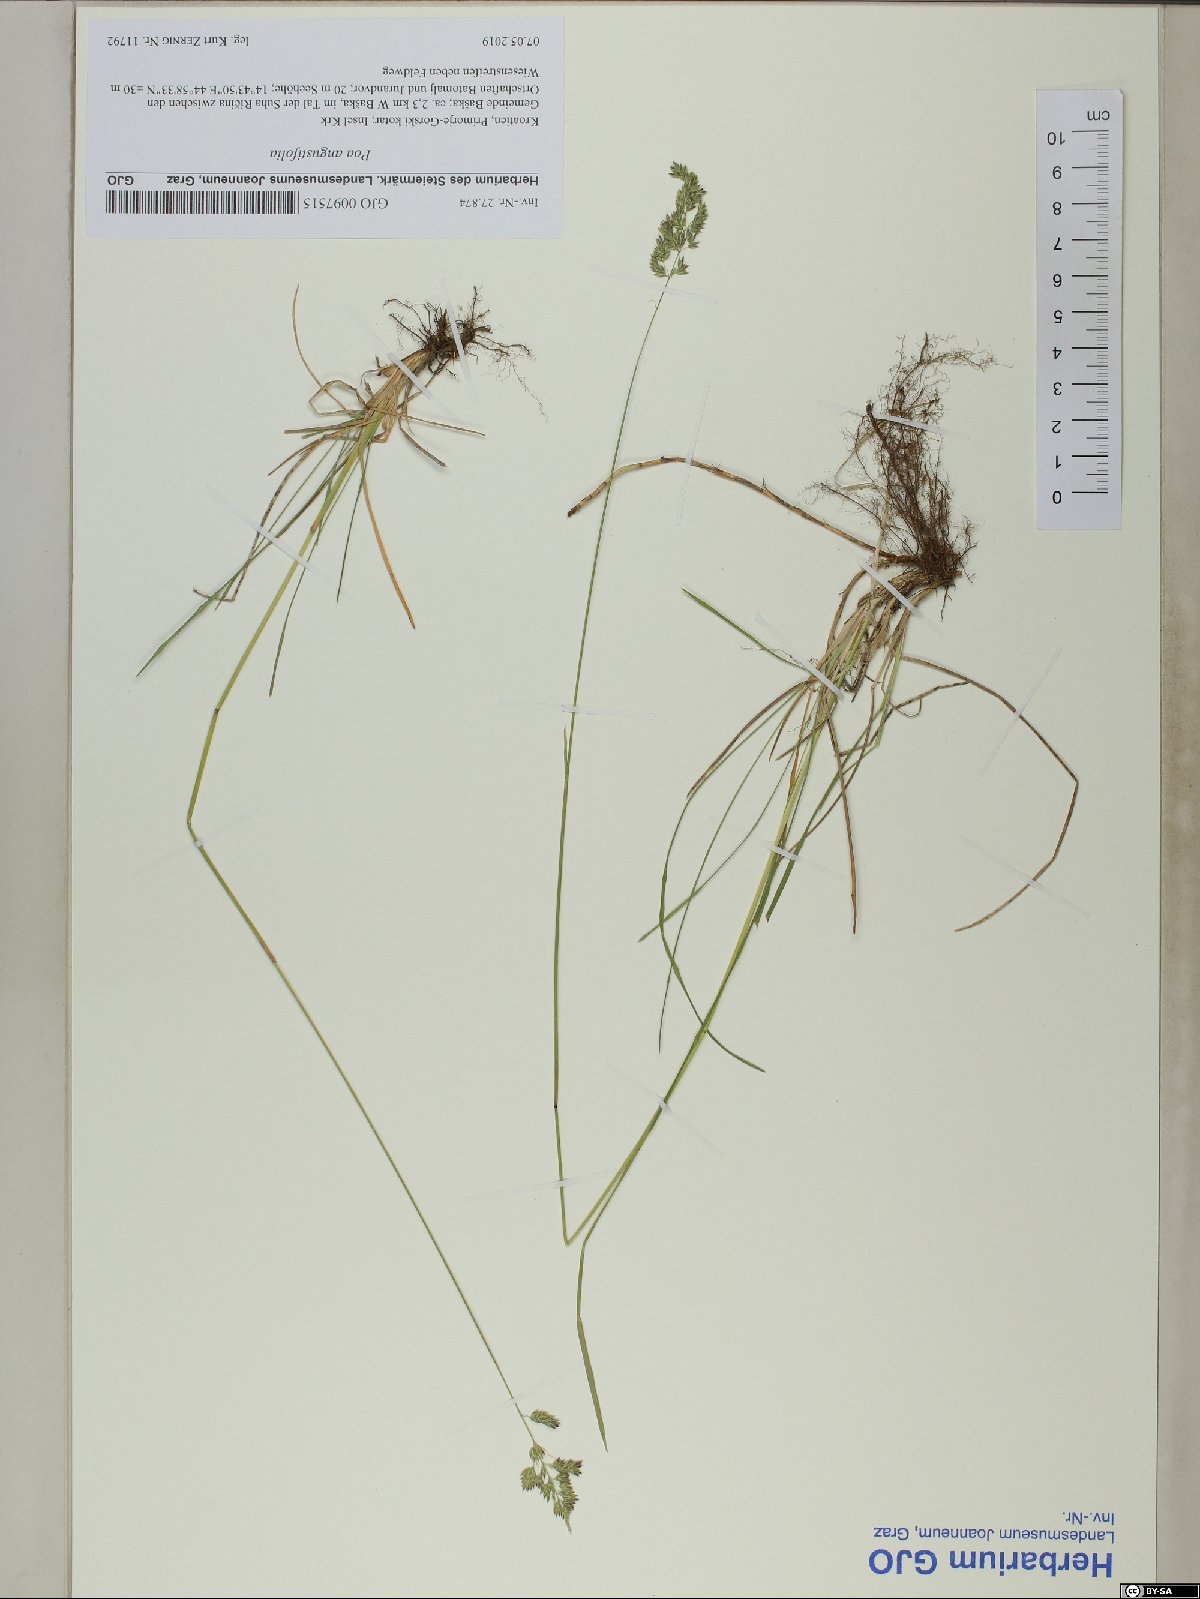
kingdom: Plantae
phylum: Tracheophyta
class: Liliopsida
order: Poales
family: Poaceae
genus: Poa
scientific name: Poa angustifolia
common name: Narrow-leaved meadow-grass
